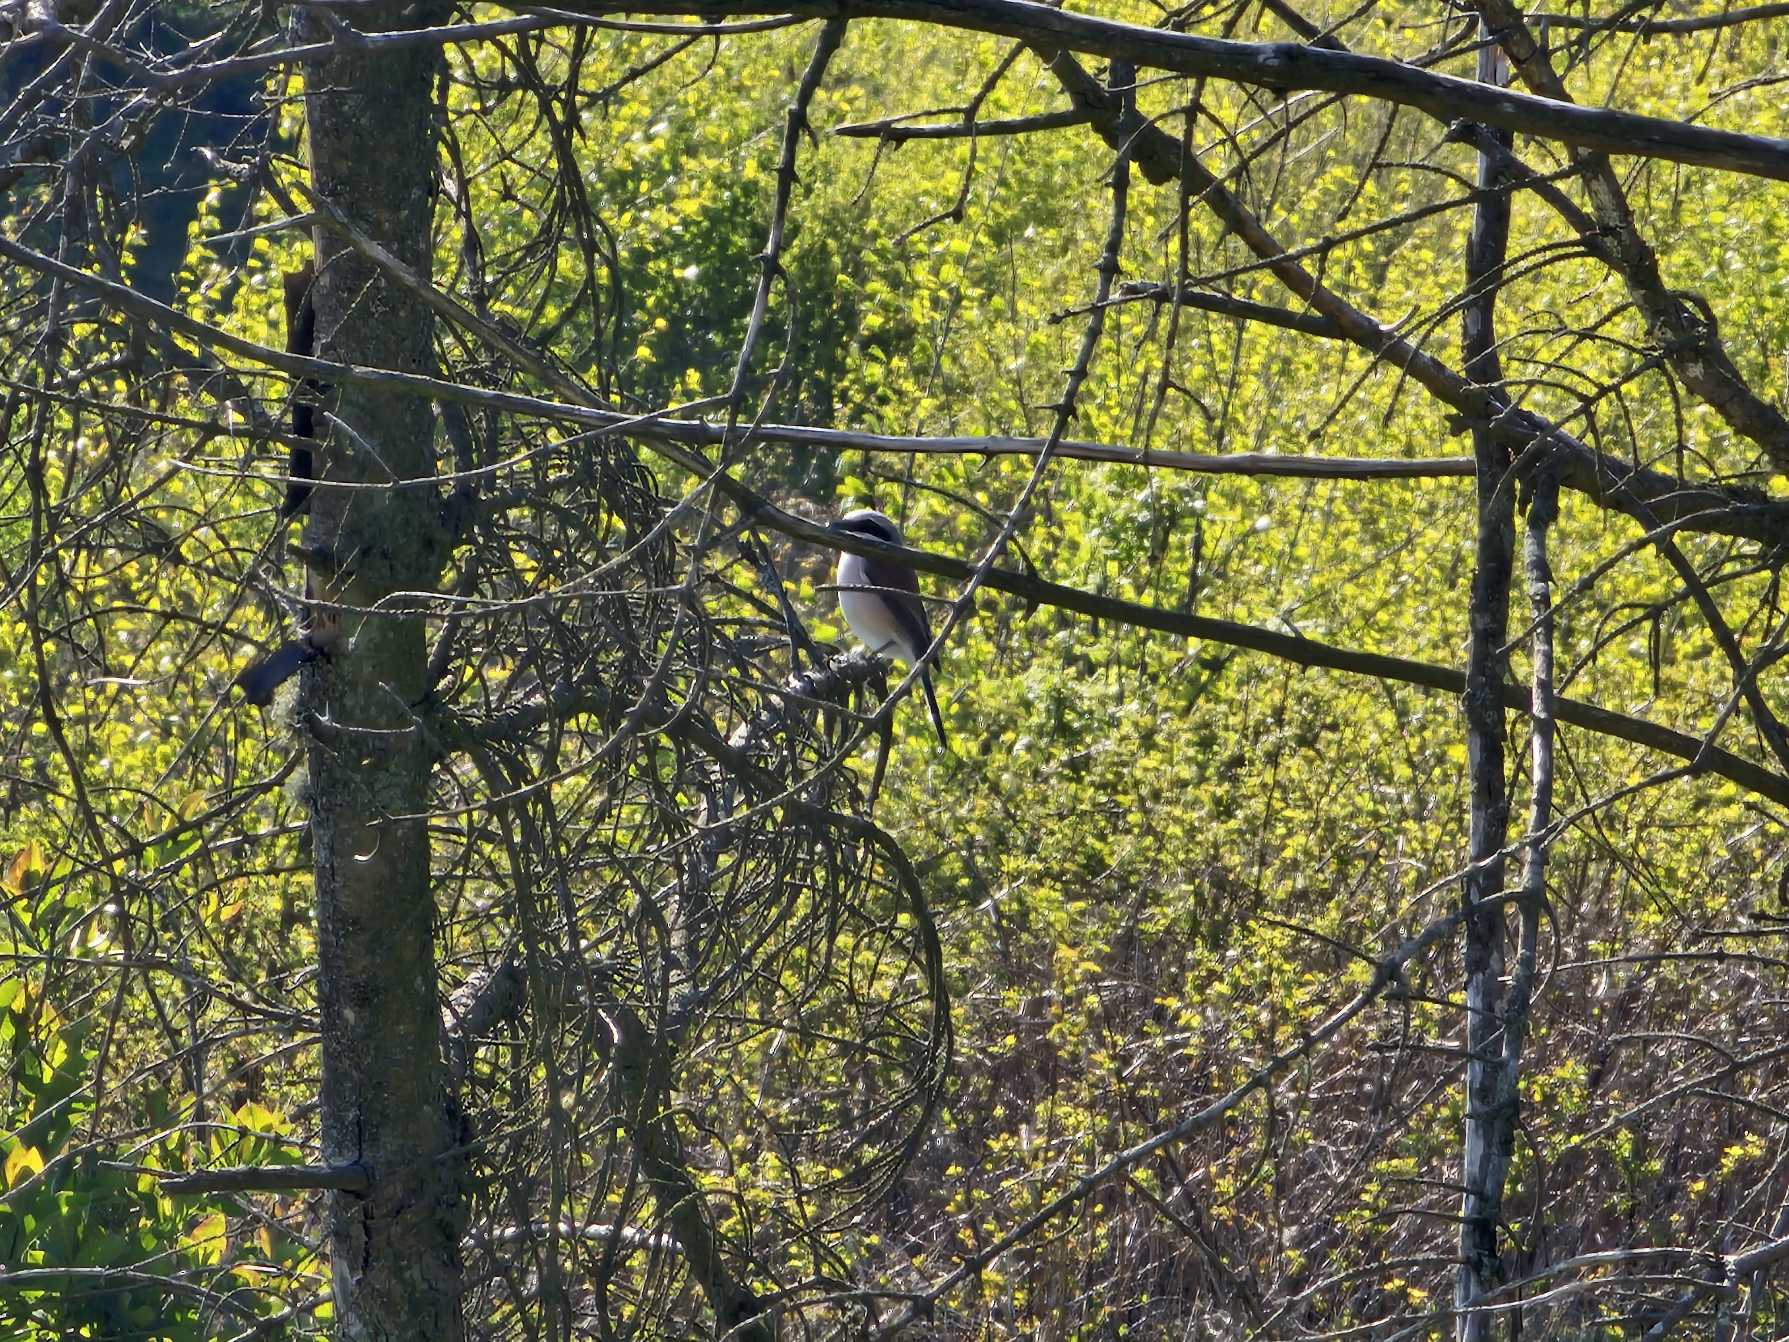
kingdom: Animalia
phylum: Chordata
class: Aves
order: Passeriformes
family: Laniidae
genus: Lanius
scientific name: Lanius collurio
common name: Rødrygget tornskade
